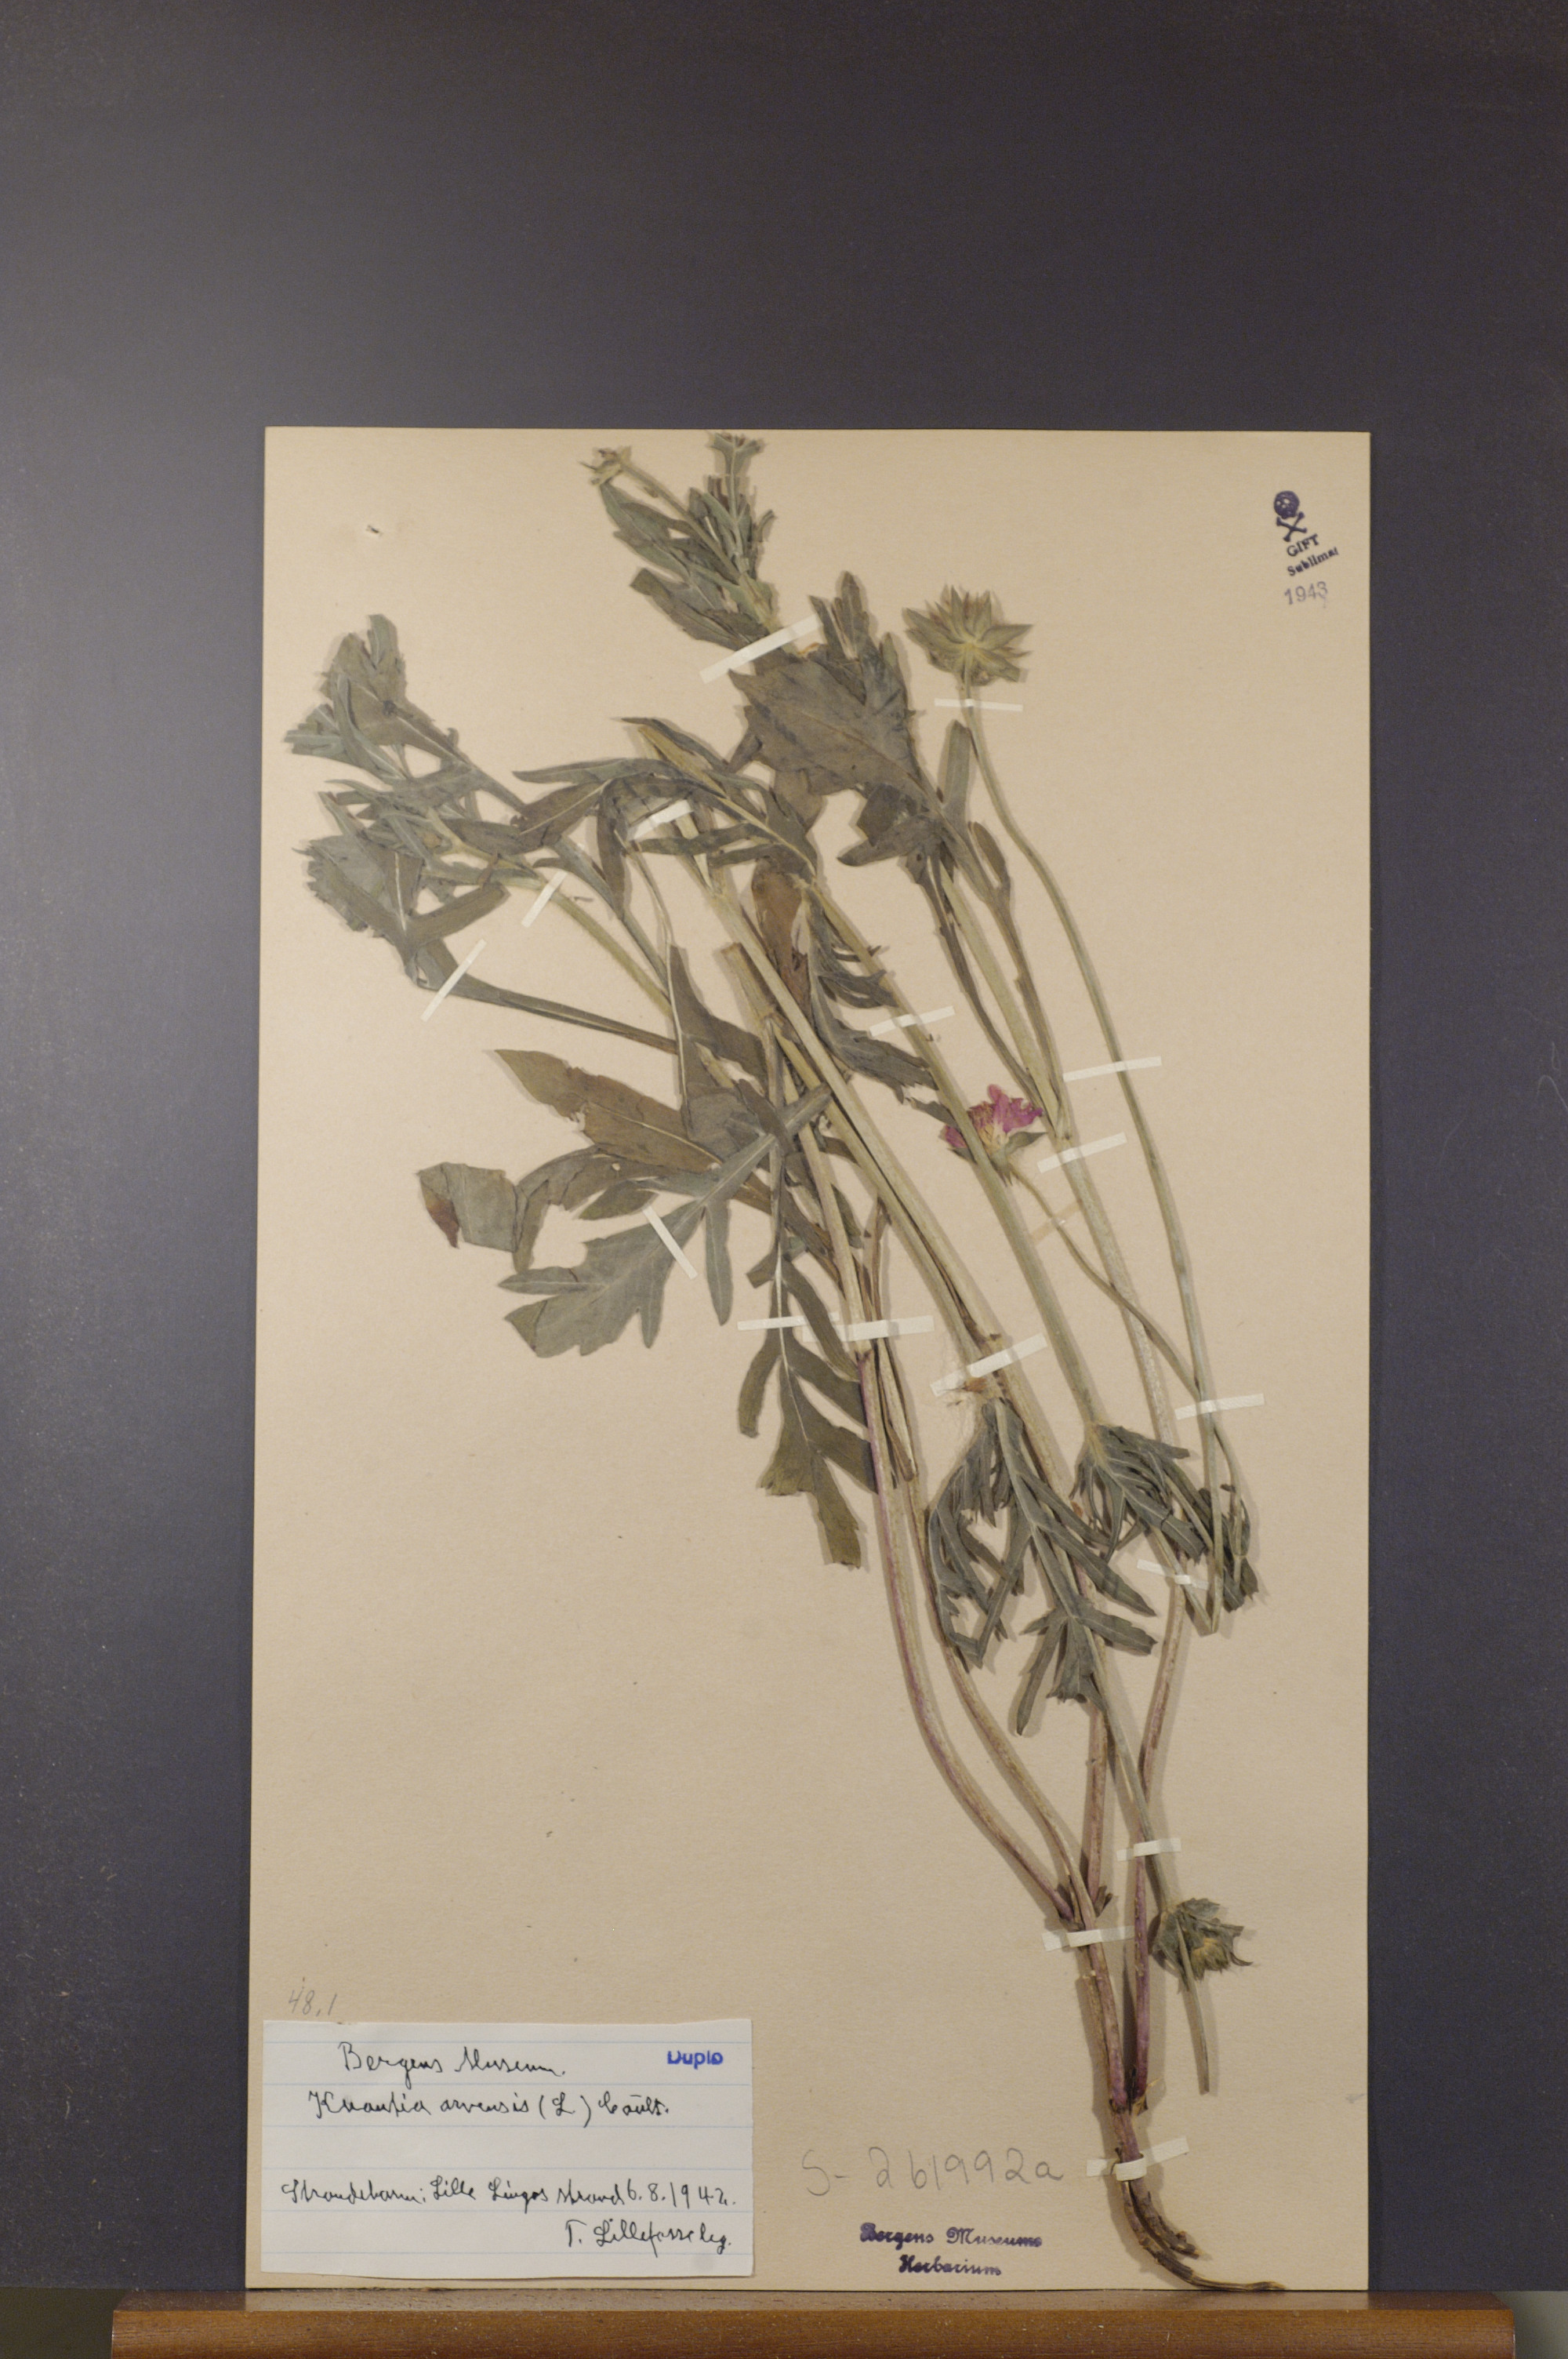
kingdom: Plantae
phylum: Tracheophyta
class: Magnoliopsida
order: Dipsacales
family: Caprifoliaceae
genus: Knautia
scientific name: Knautia arvensis
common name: Field scabiosa
